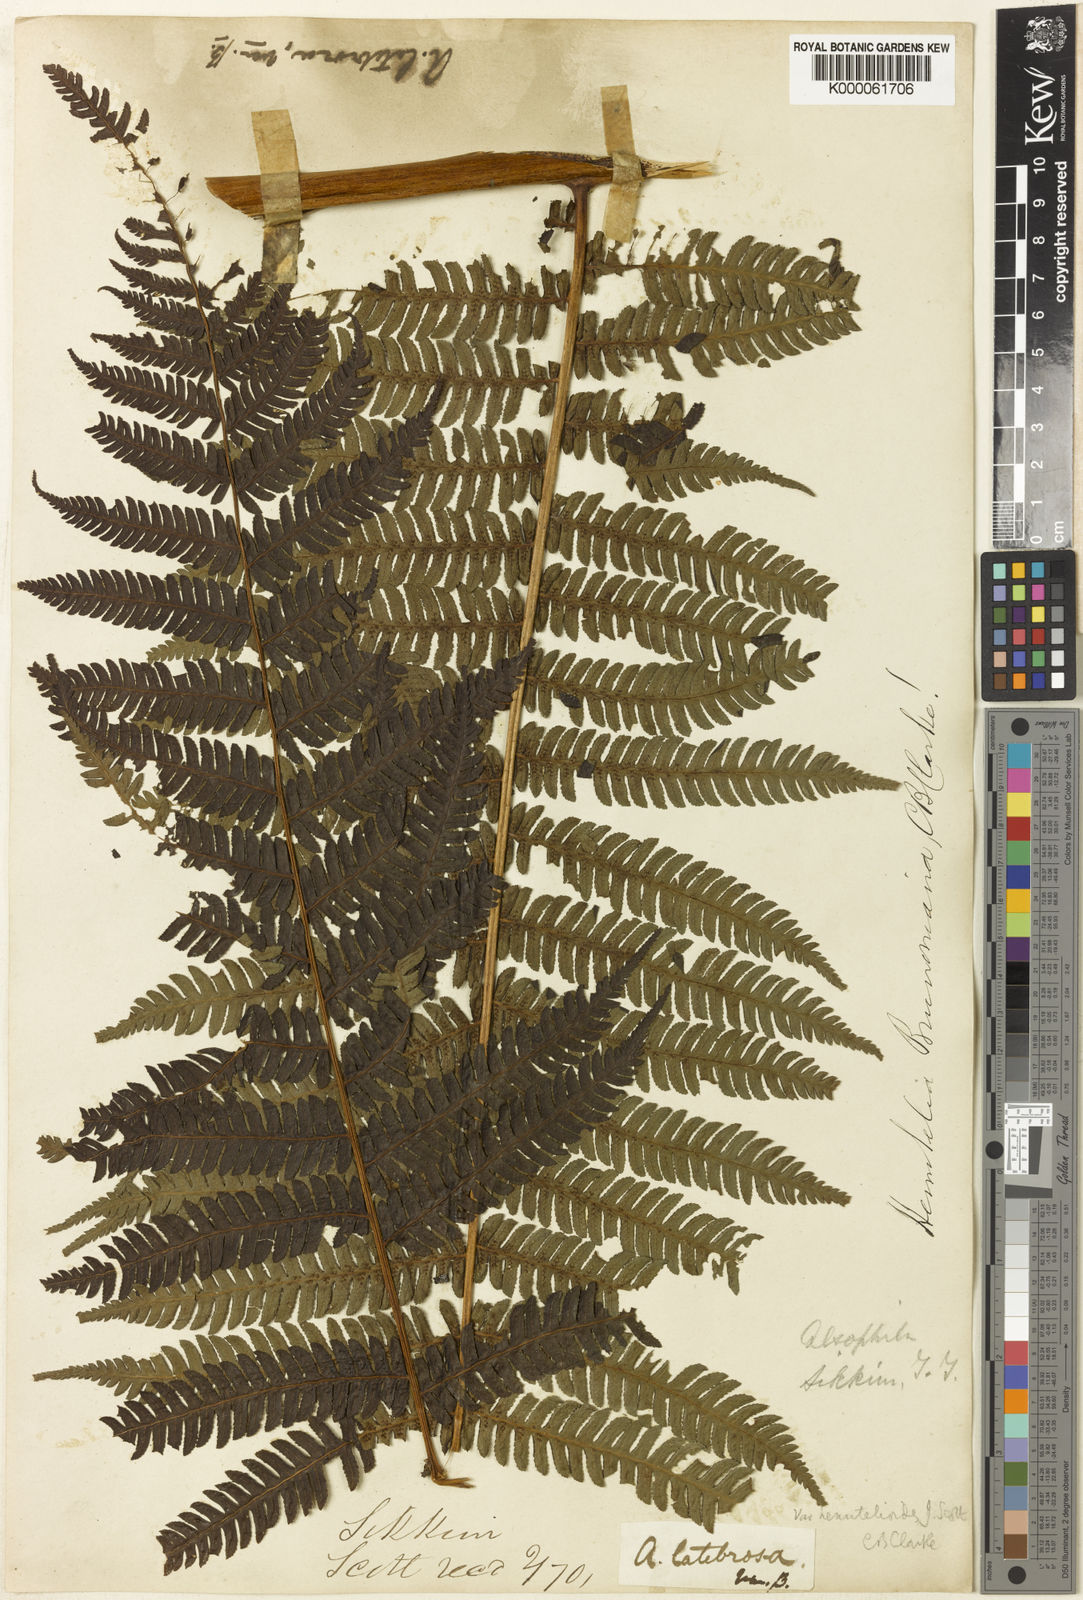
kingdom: Plantae
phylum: Tracheophyta
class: Polypodiopsida
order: Cyatheales
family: Cyatheaceae
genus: Sphaeropteris
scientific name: Sphaeropteris chinensis
